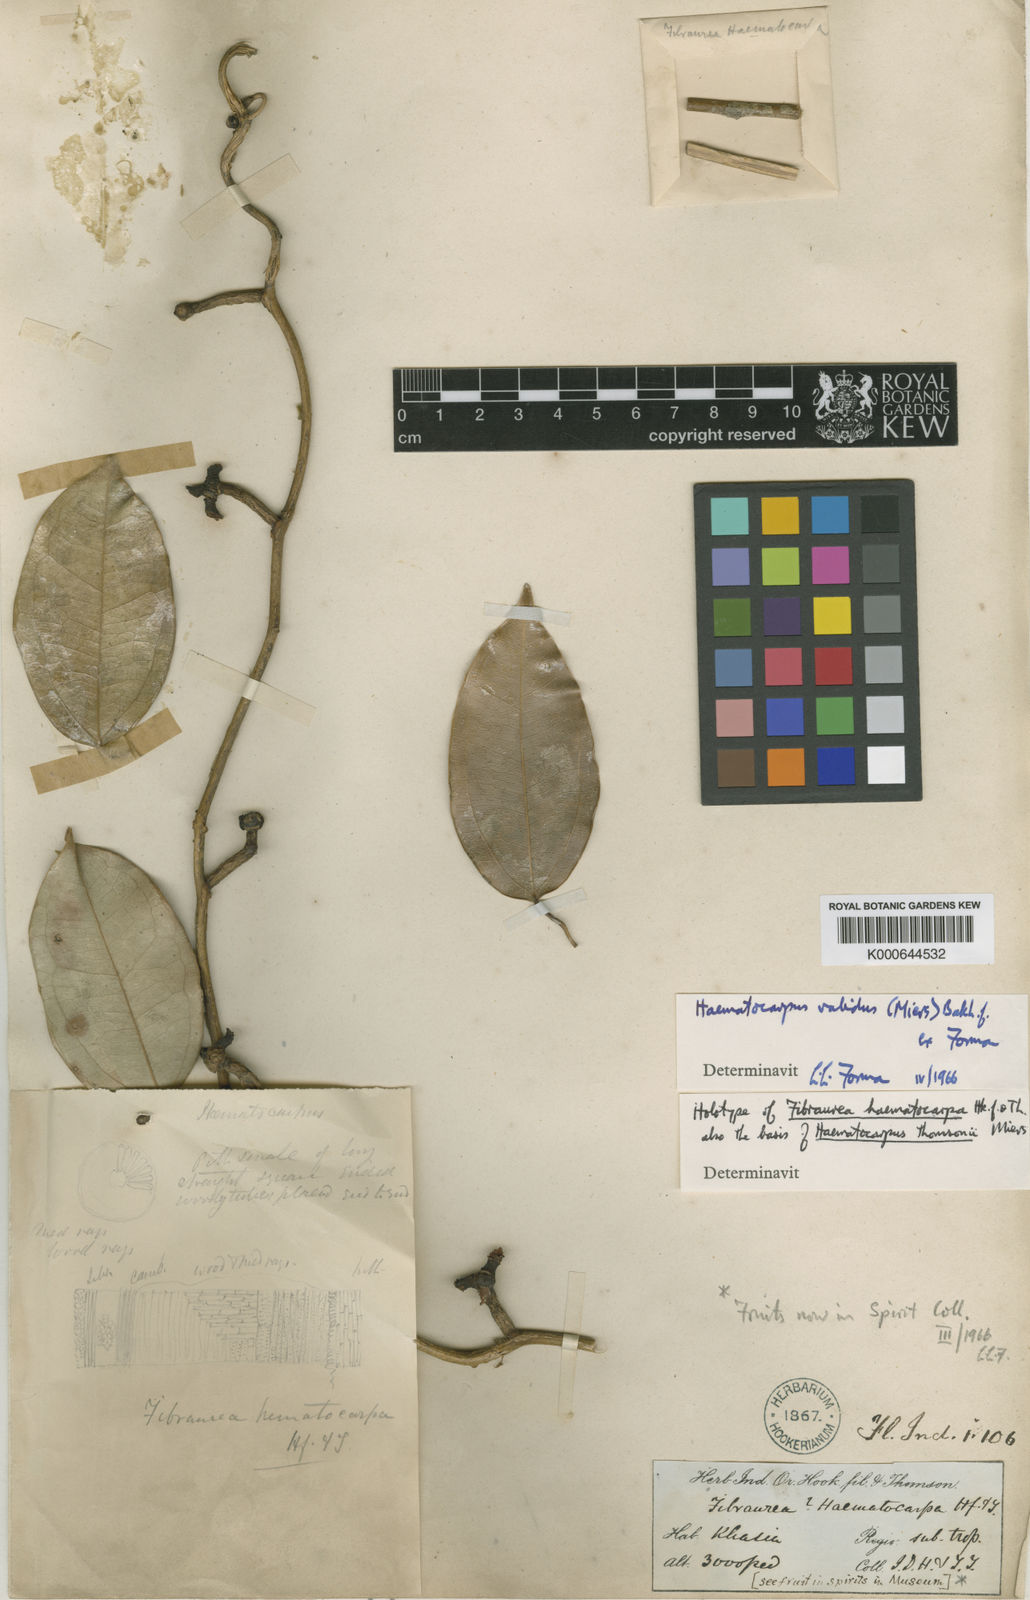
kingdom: Plantae
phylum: Tracheophyta
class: Magnoliopsida
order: Ranunculales
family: Menispermaceae
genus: Haematocarpus
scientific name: Haematocarpus validus
